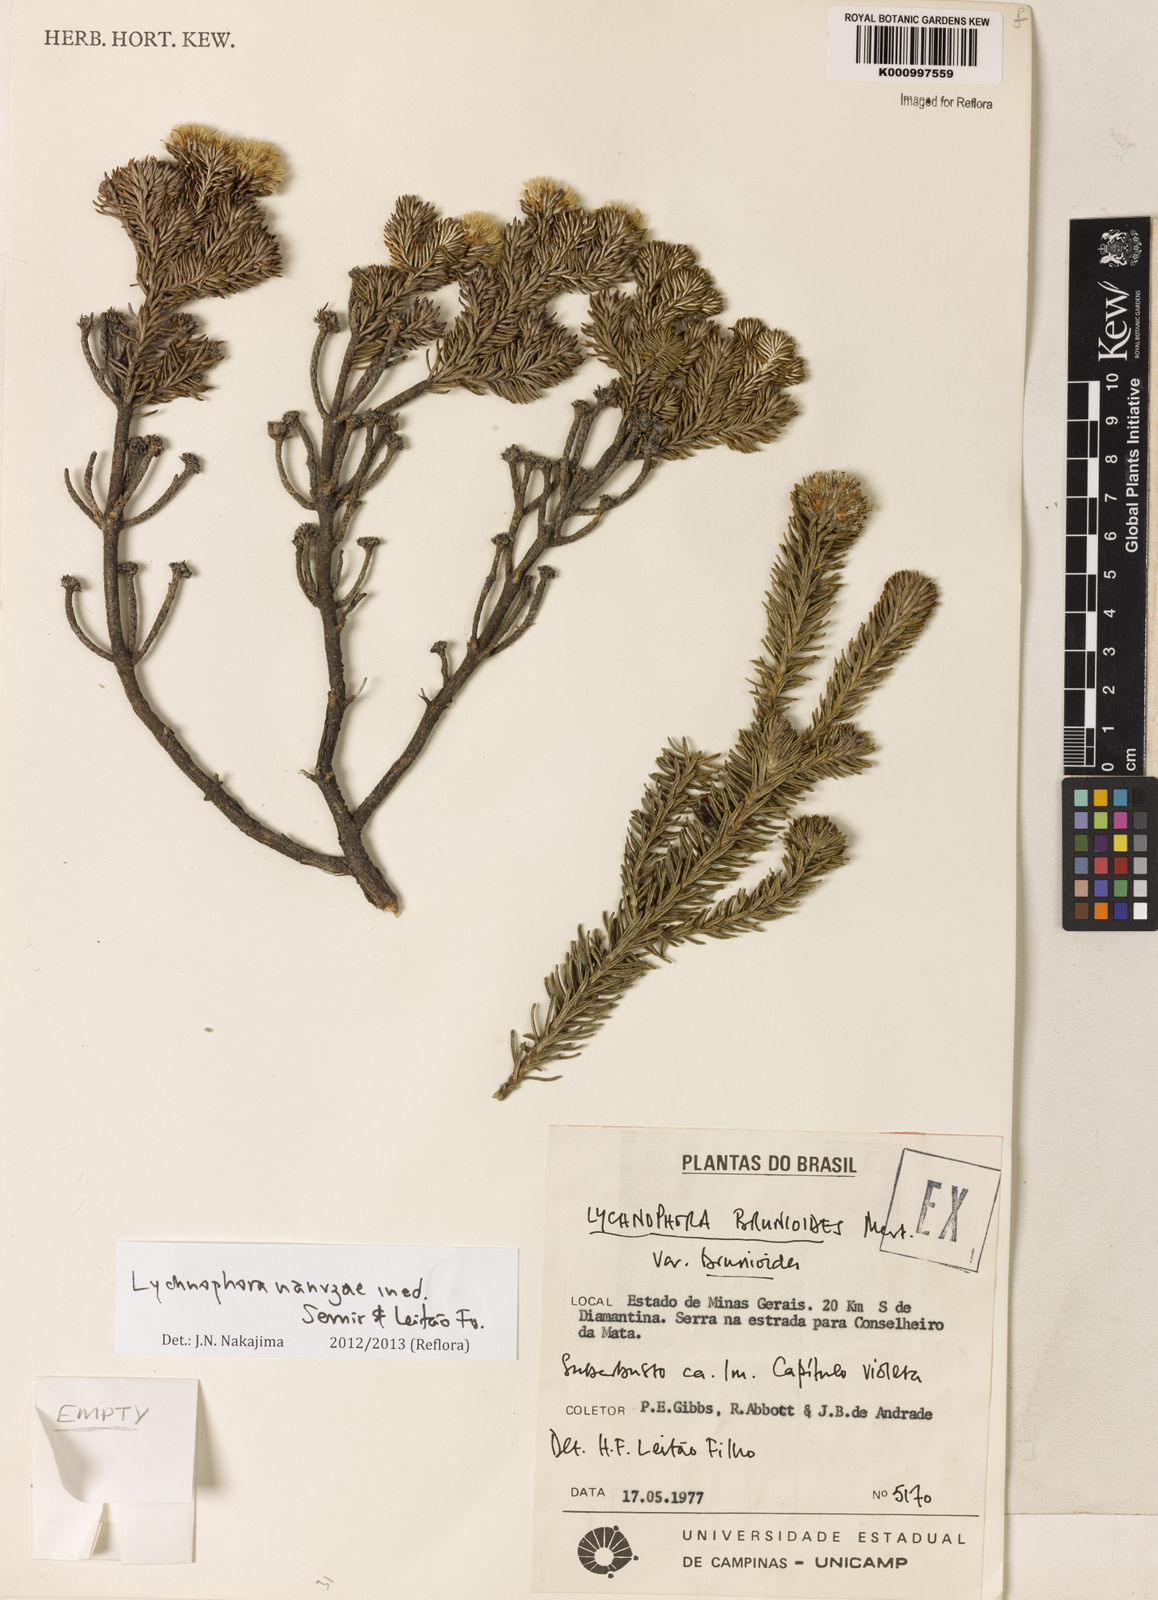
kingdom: Plantae
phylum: Tracheophyta
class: Magnoliopsida
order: Asterales
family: Asteraceae
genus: Lychnophora
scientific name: Lychnophora nanuzae
